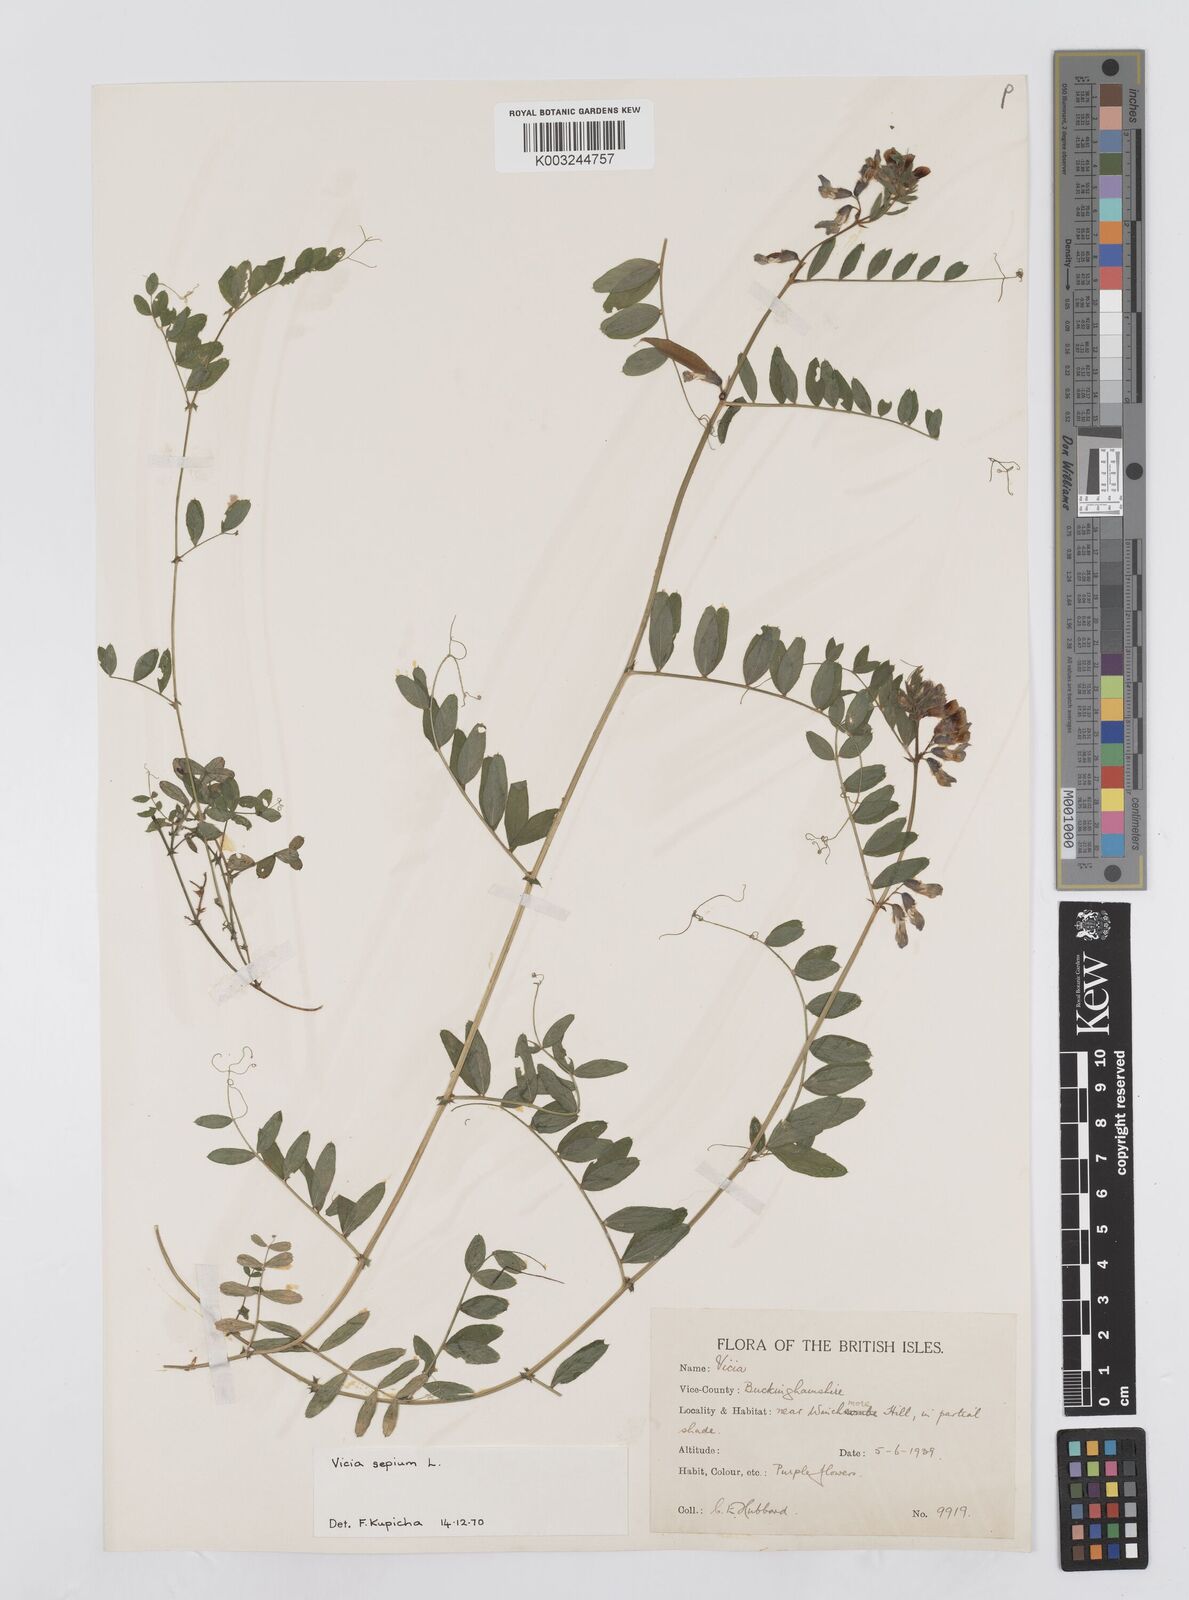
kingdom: Plantae
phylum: Tracheophyta
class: Magnoliopsida
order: Fabales
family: Fabaceae
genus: Vicia
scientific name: Vicia
